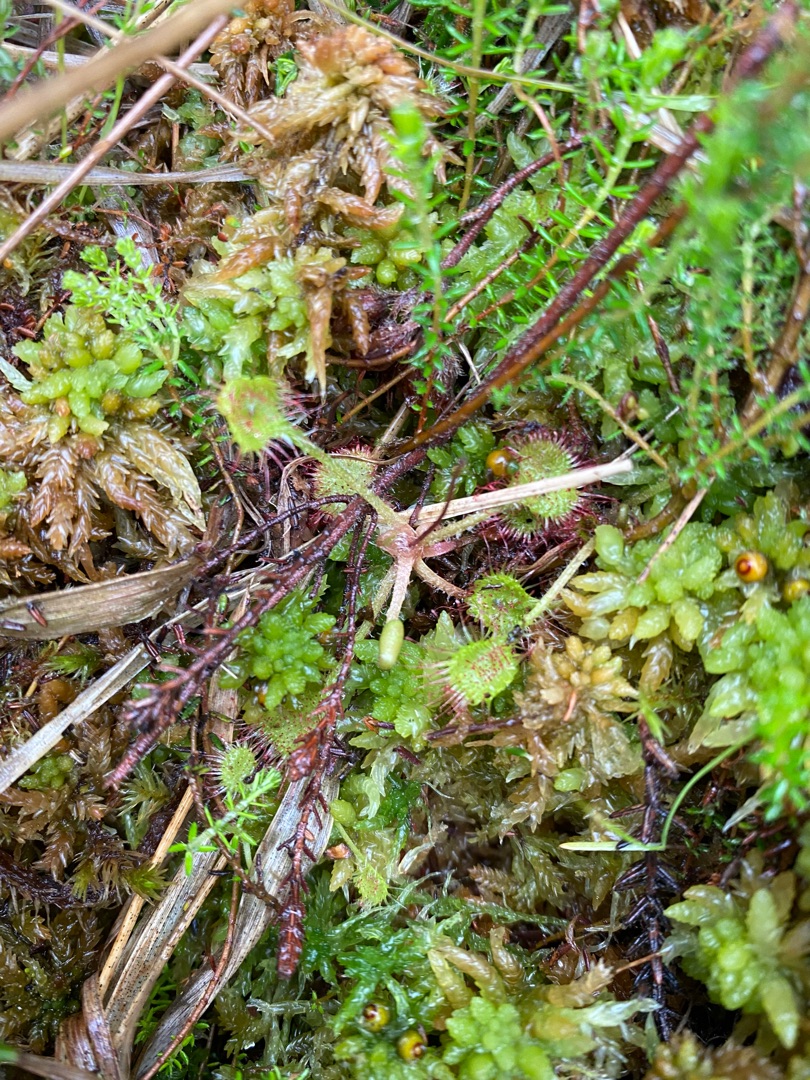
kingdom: Plantae
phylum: Tracheophyta
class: Magnoliopsida
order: Caryophyllales
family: Droseraceae
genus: Drosera
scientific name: Drosera rotundifolia
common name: Rundbladet soldug
